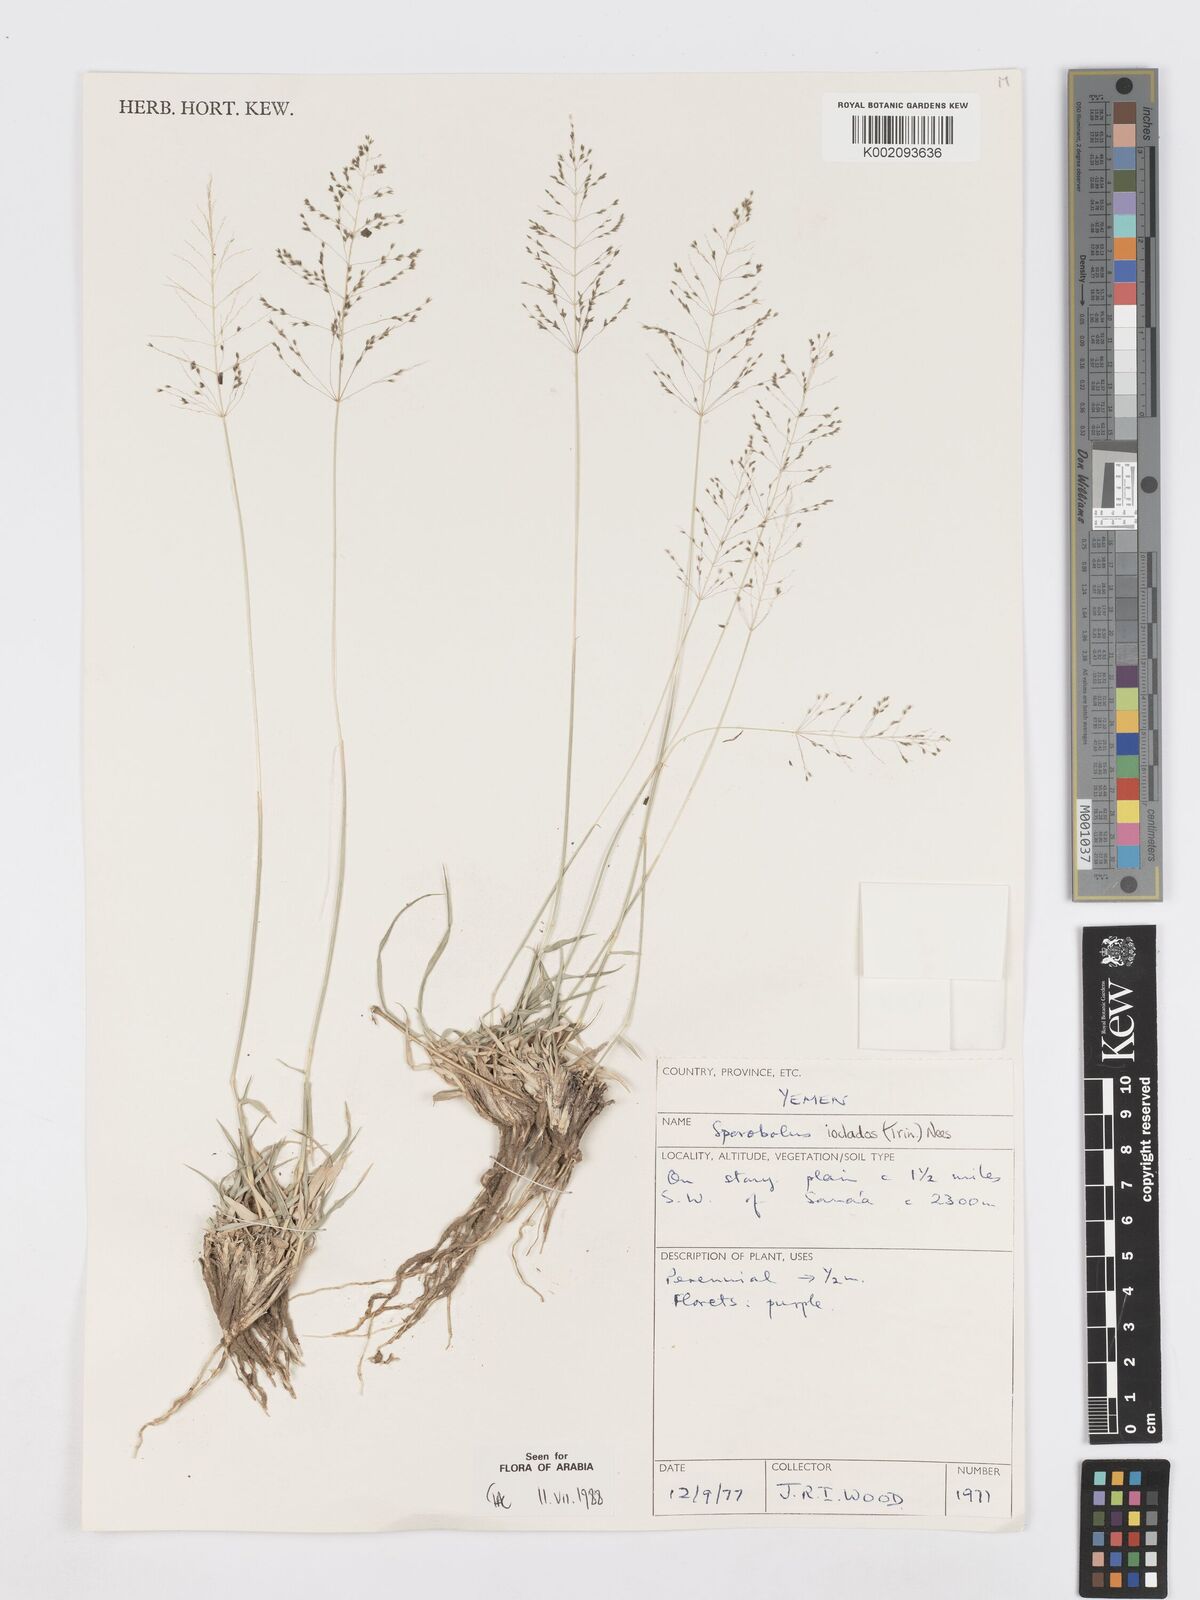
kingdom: Plantae
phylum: Tracheophyta
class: Liliopsida
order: Poales
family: Poaceae
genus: Sporobolus
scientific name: Sporobolus ioclados
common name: Pan dropseed
